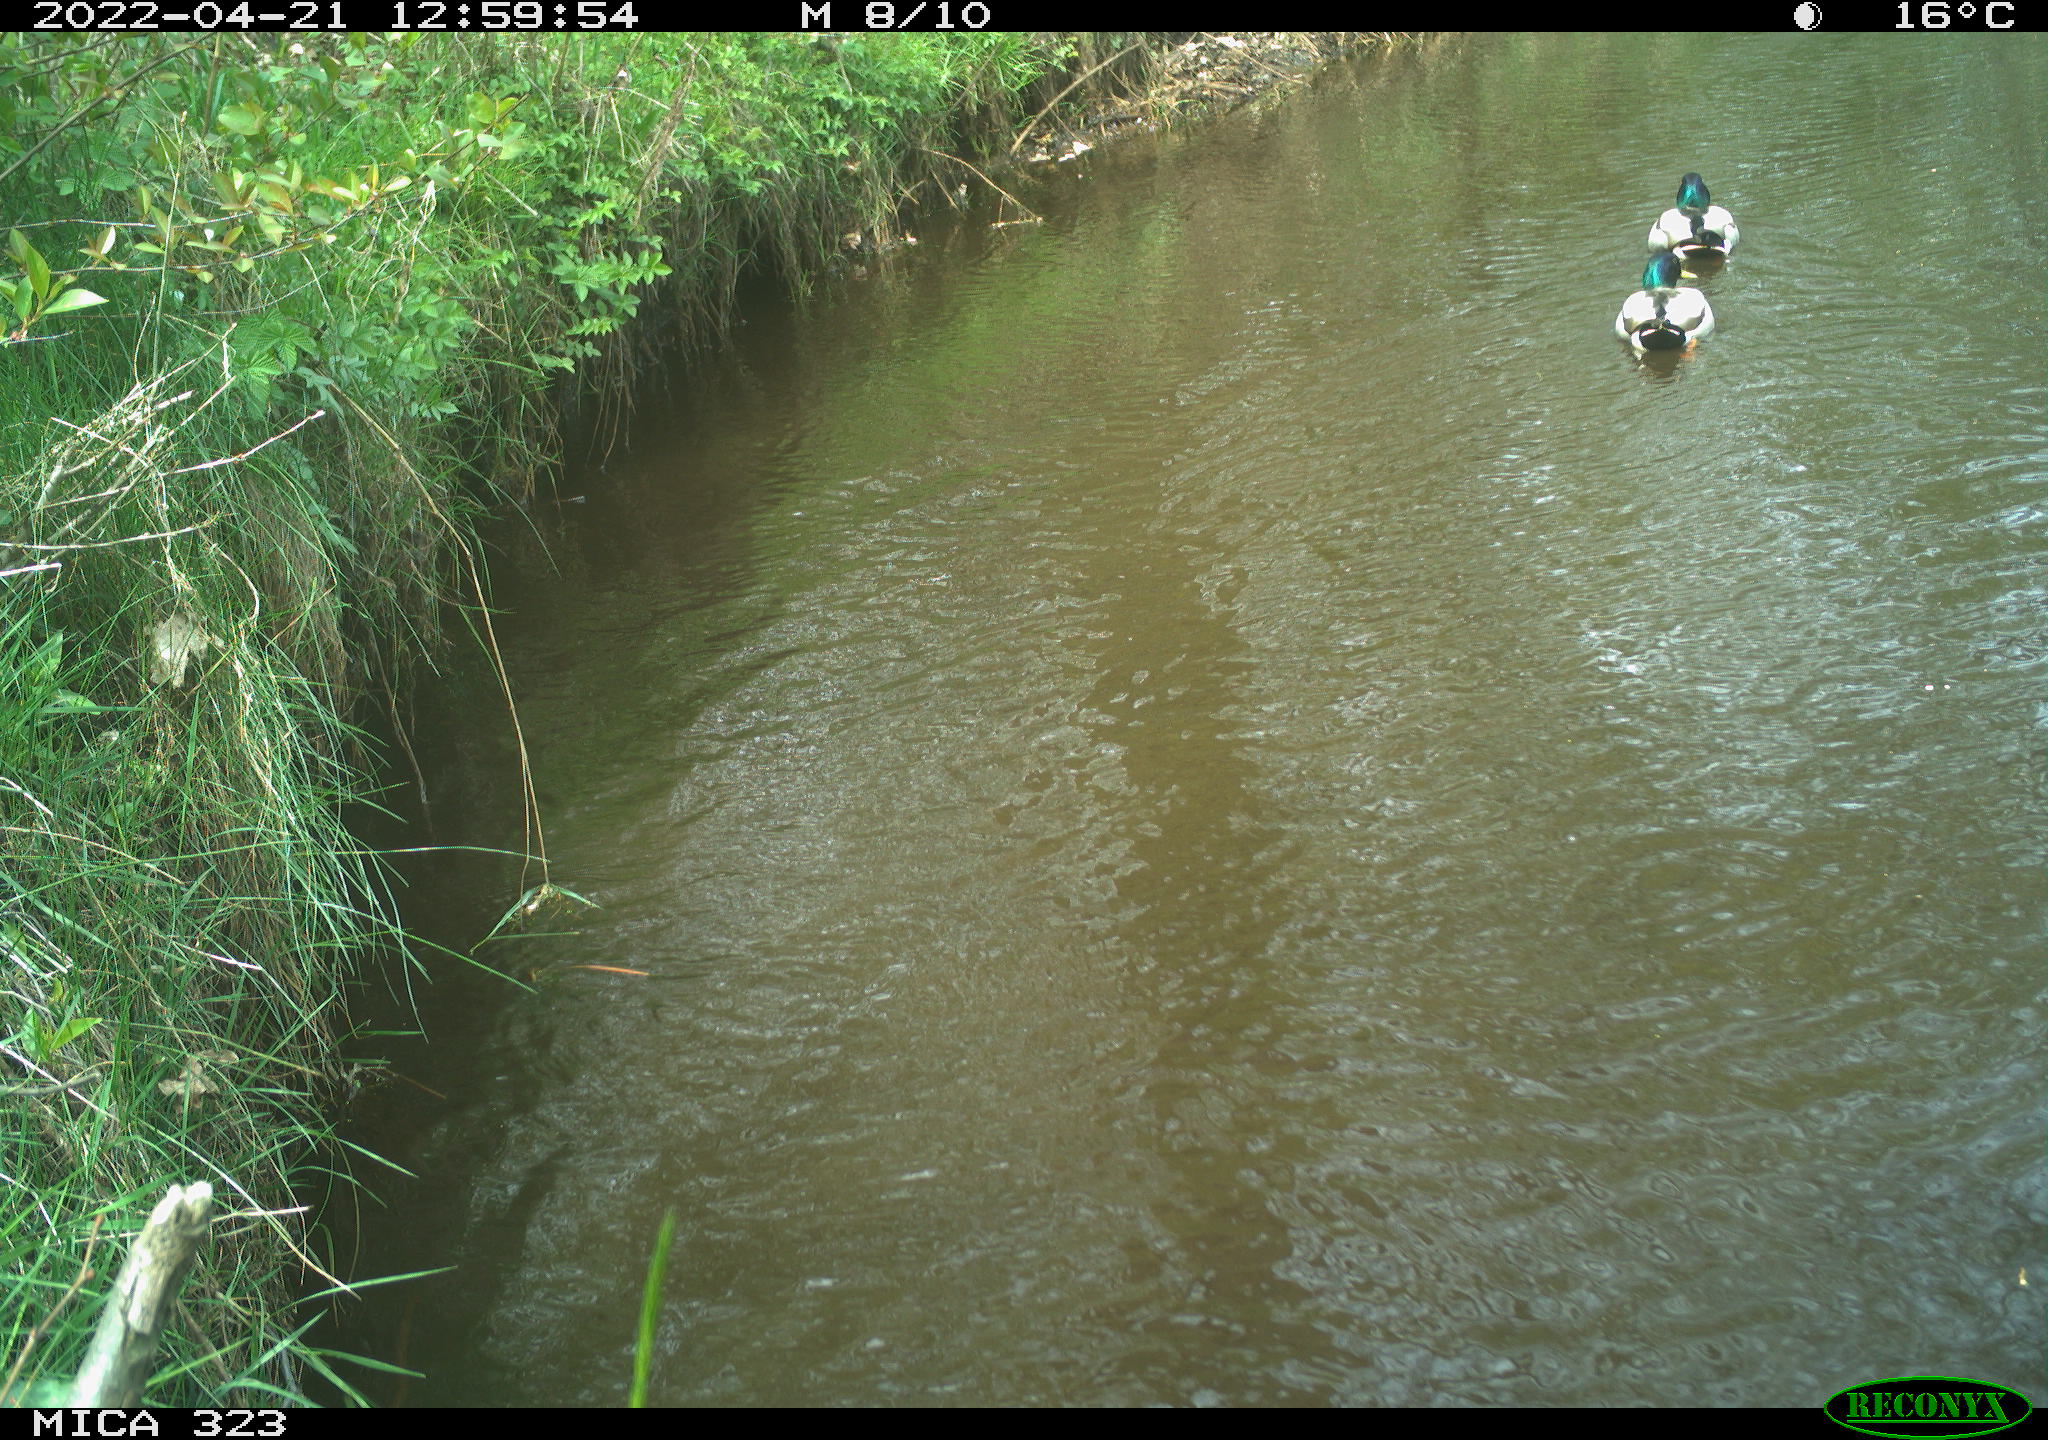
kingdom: Animalia
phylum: Chordata
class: Aves
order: Anseriformes
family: Anatidae
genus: Anas
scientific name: Anas platyrhynchos
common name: Mallard
